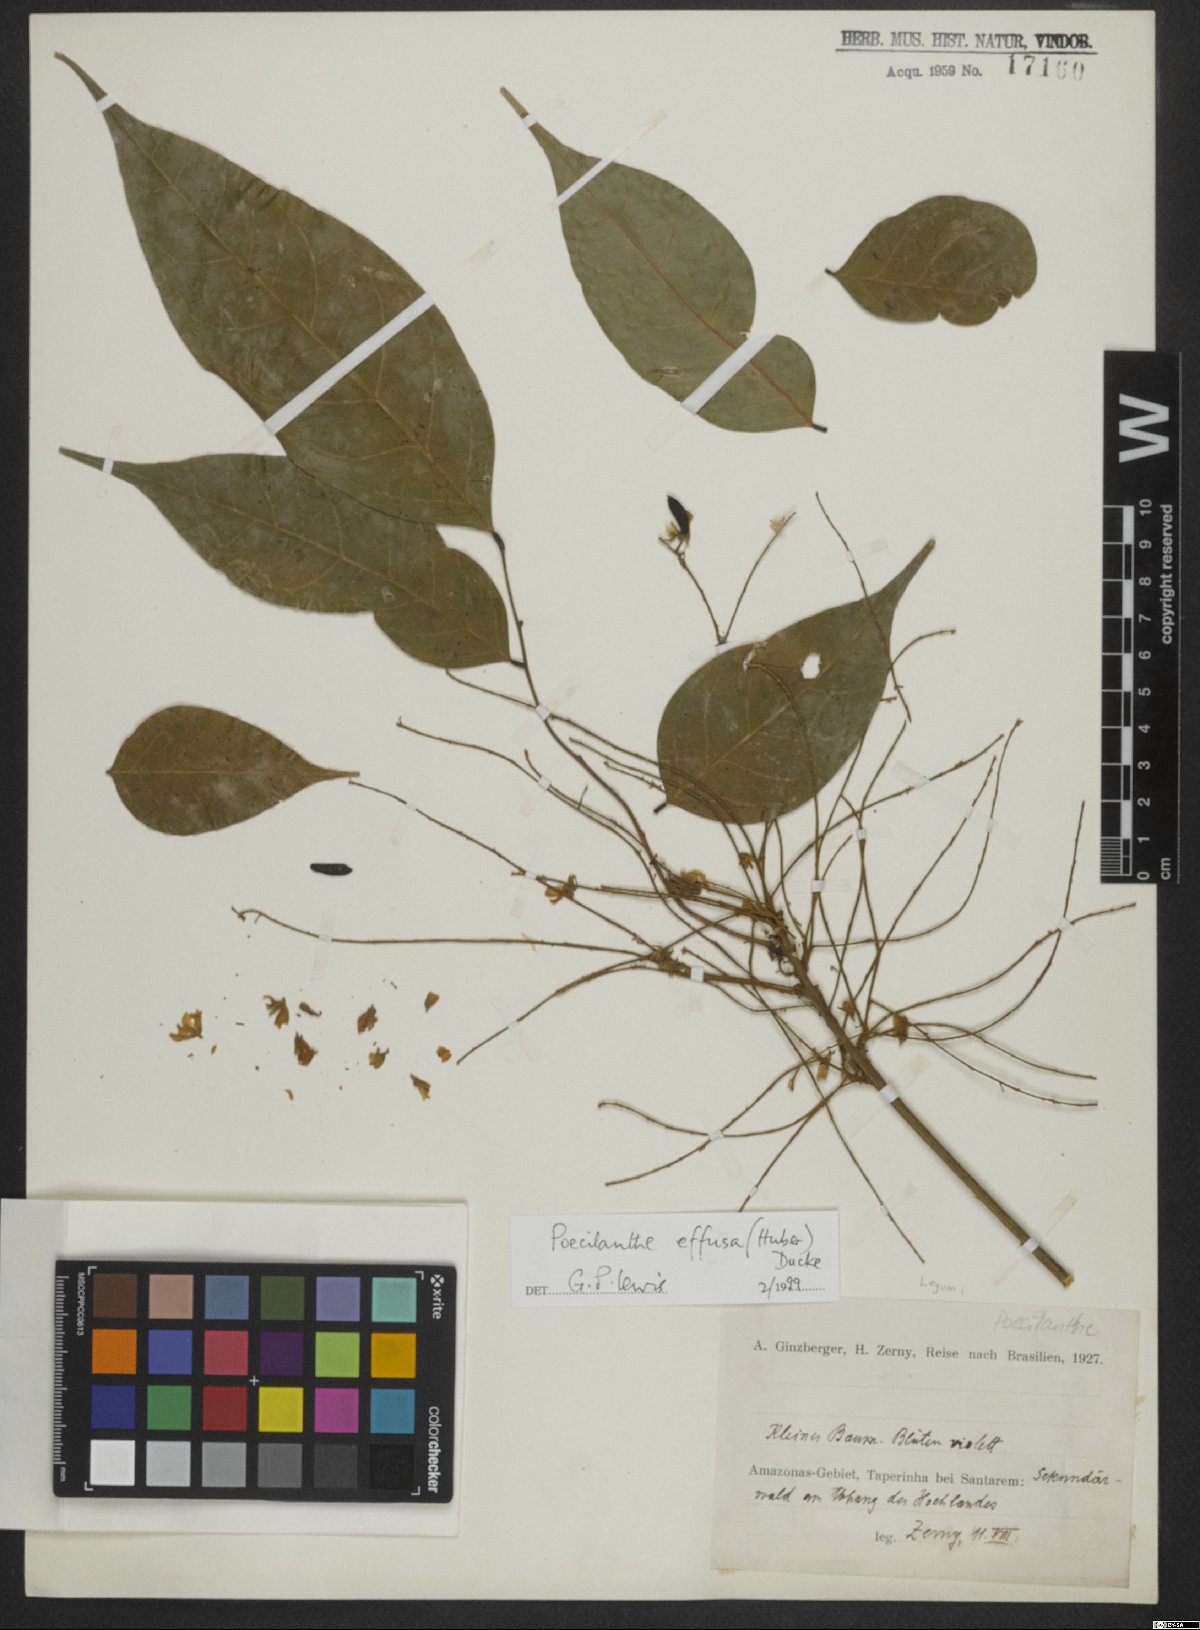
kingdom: Plantae
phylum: Tracheophyta
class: Magnoliopsida
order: Fabales
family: Fabaceae
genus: Amphiodon
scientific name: Amphiodon effusus
